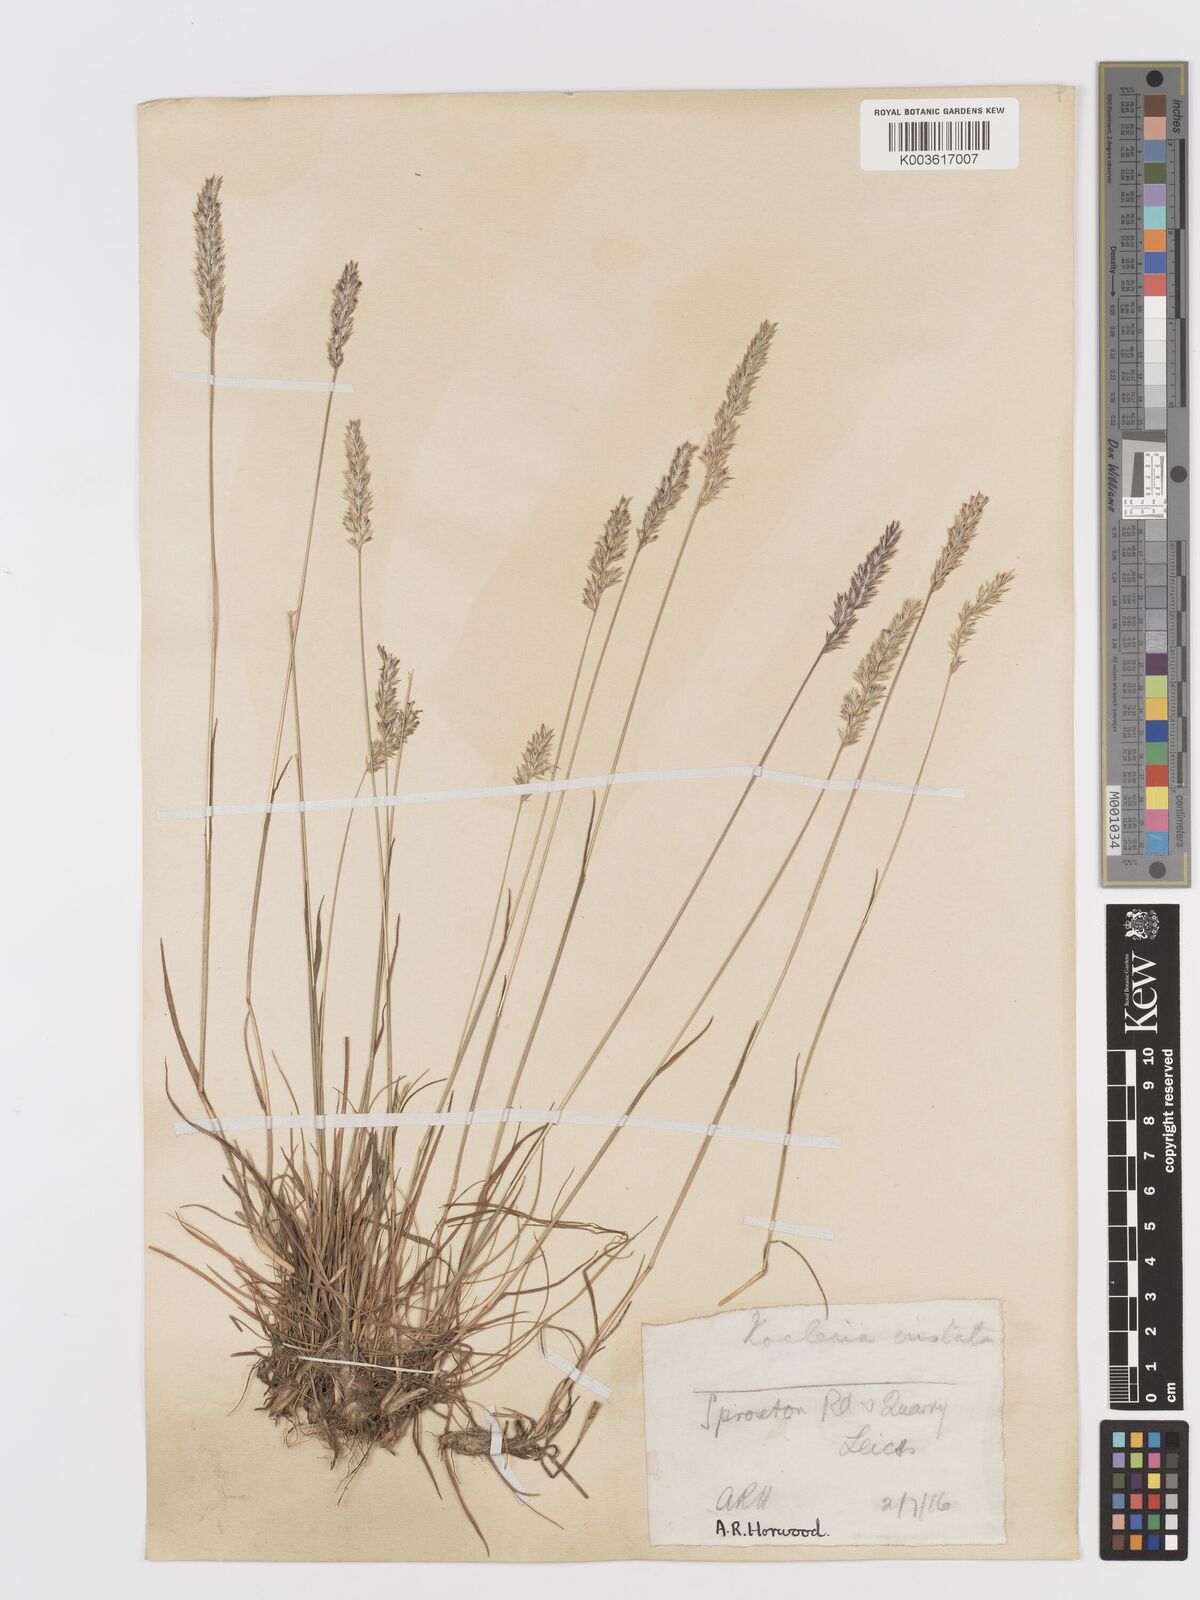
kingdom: Plantae
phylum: Tracheophyta
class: Liliopsida
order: Poales
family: Poaceae
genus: Koeleria
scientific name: Koeleria macrantha
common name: Crested hair-grass
